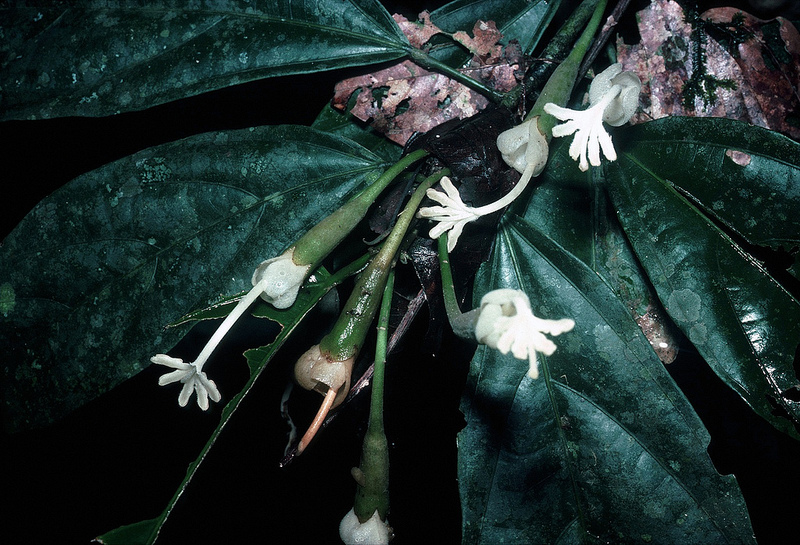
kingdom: Plantae
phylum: Tracheophyta
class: Magnoliopsida
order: Malvales
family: Malvaceae
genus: Matisia
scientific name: Matisia alchornifolia
